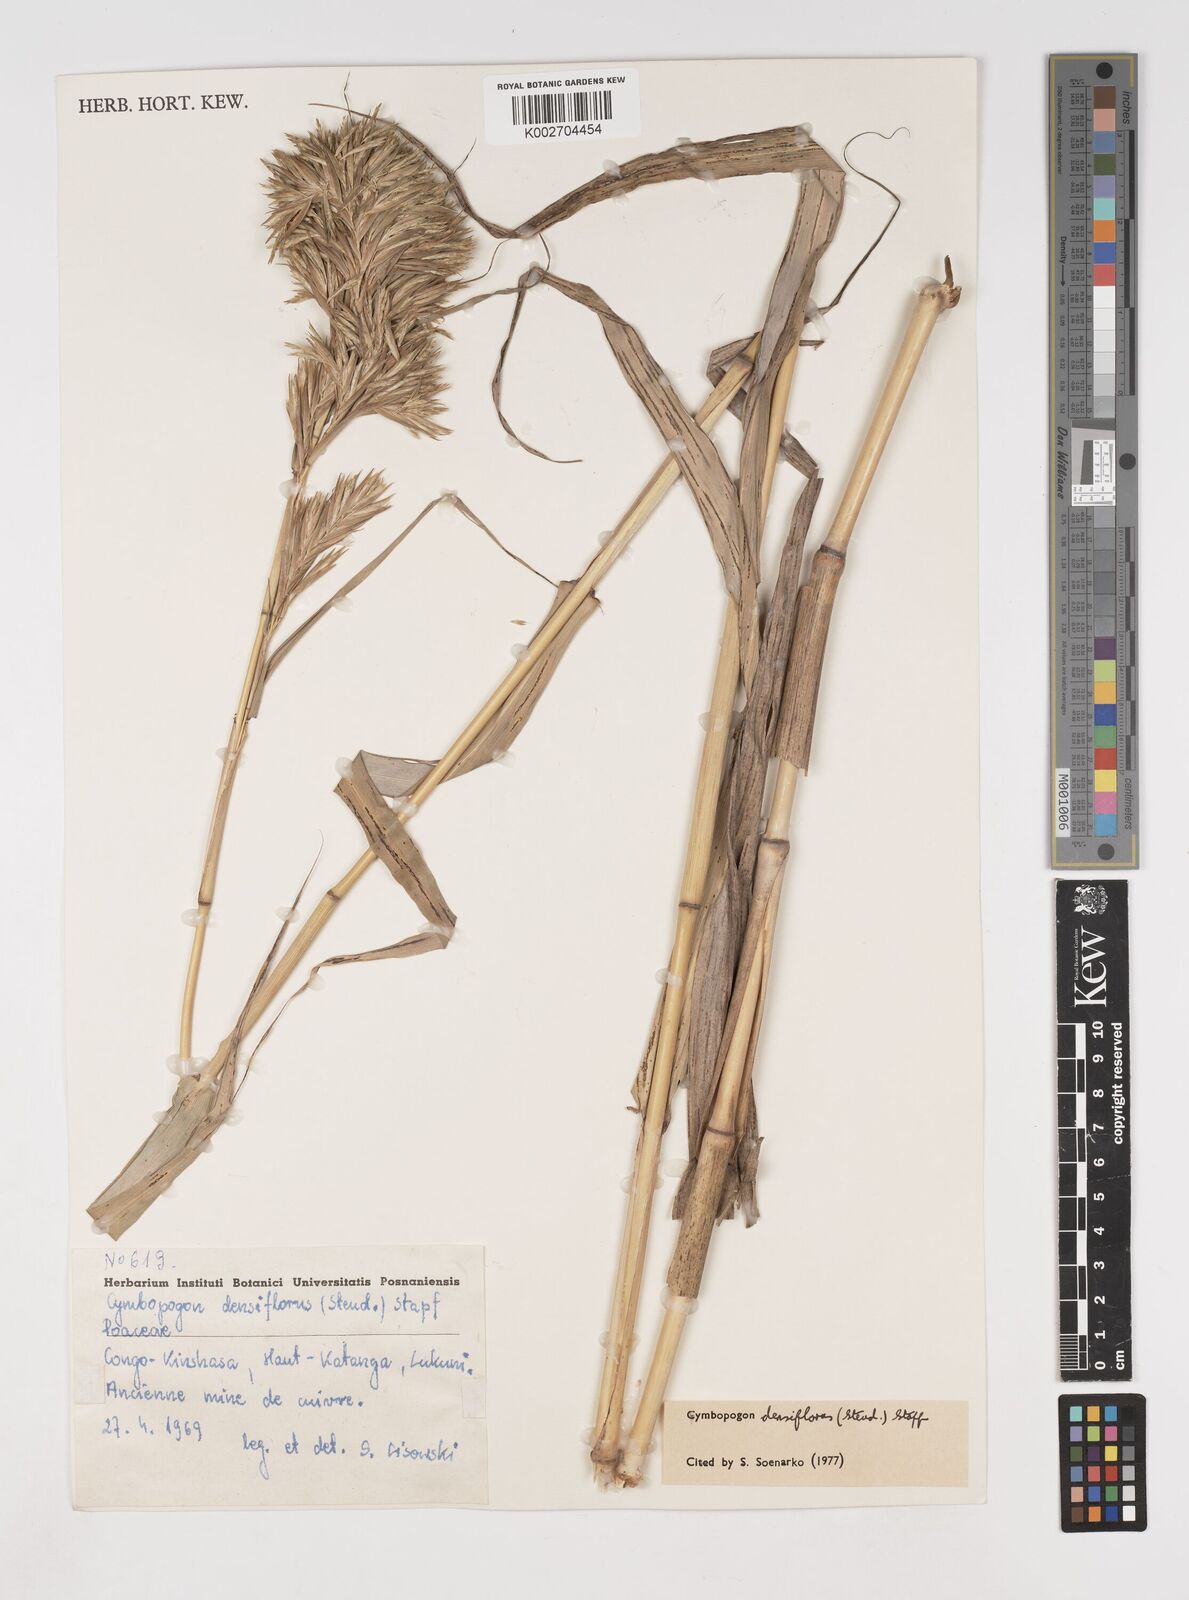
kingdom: Plantae
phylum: Tracheophyta
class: Liliopsida
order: Poales
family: Poaceae
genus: Cymbopogon
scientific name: Cymbopogon densiflorus
